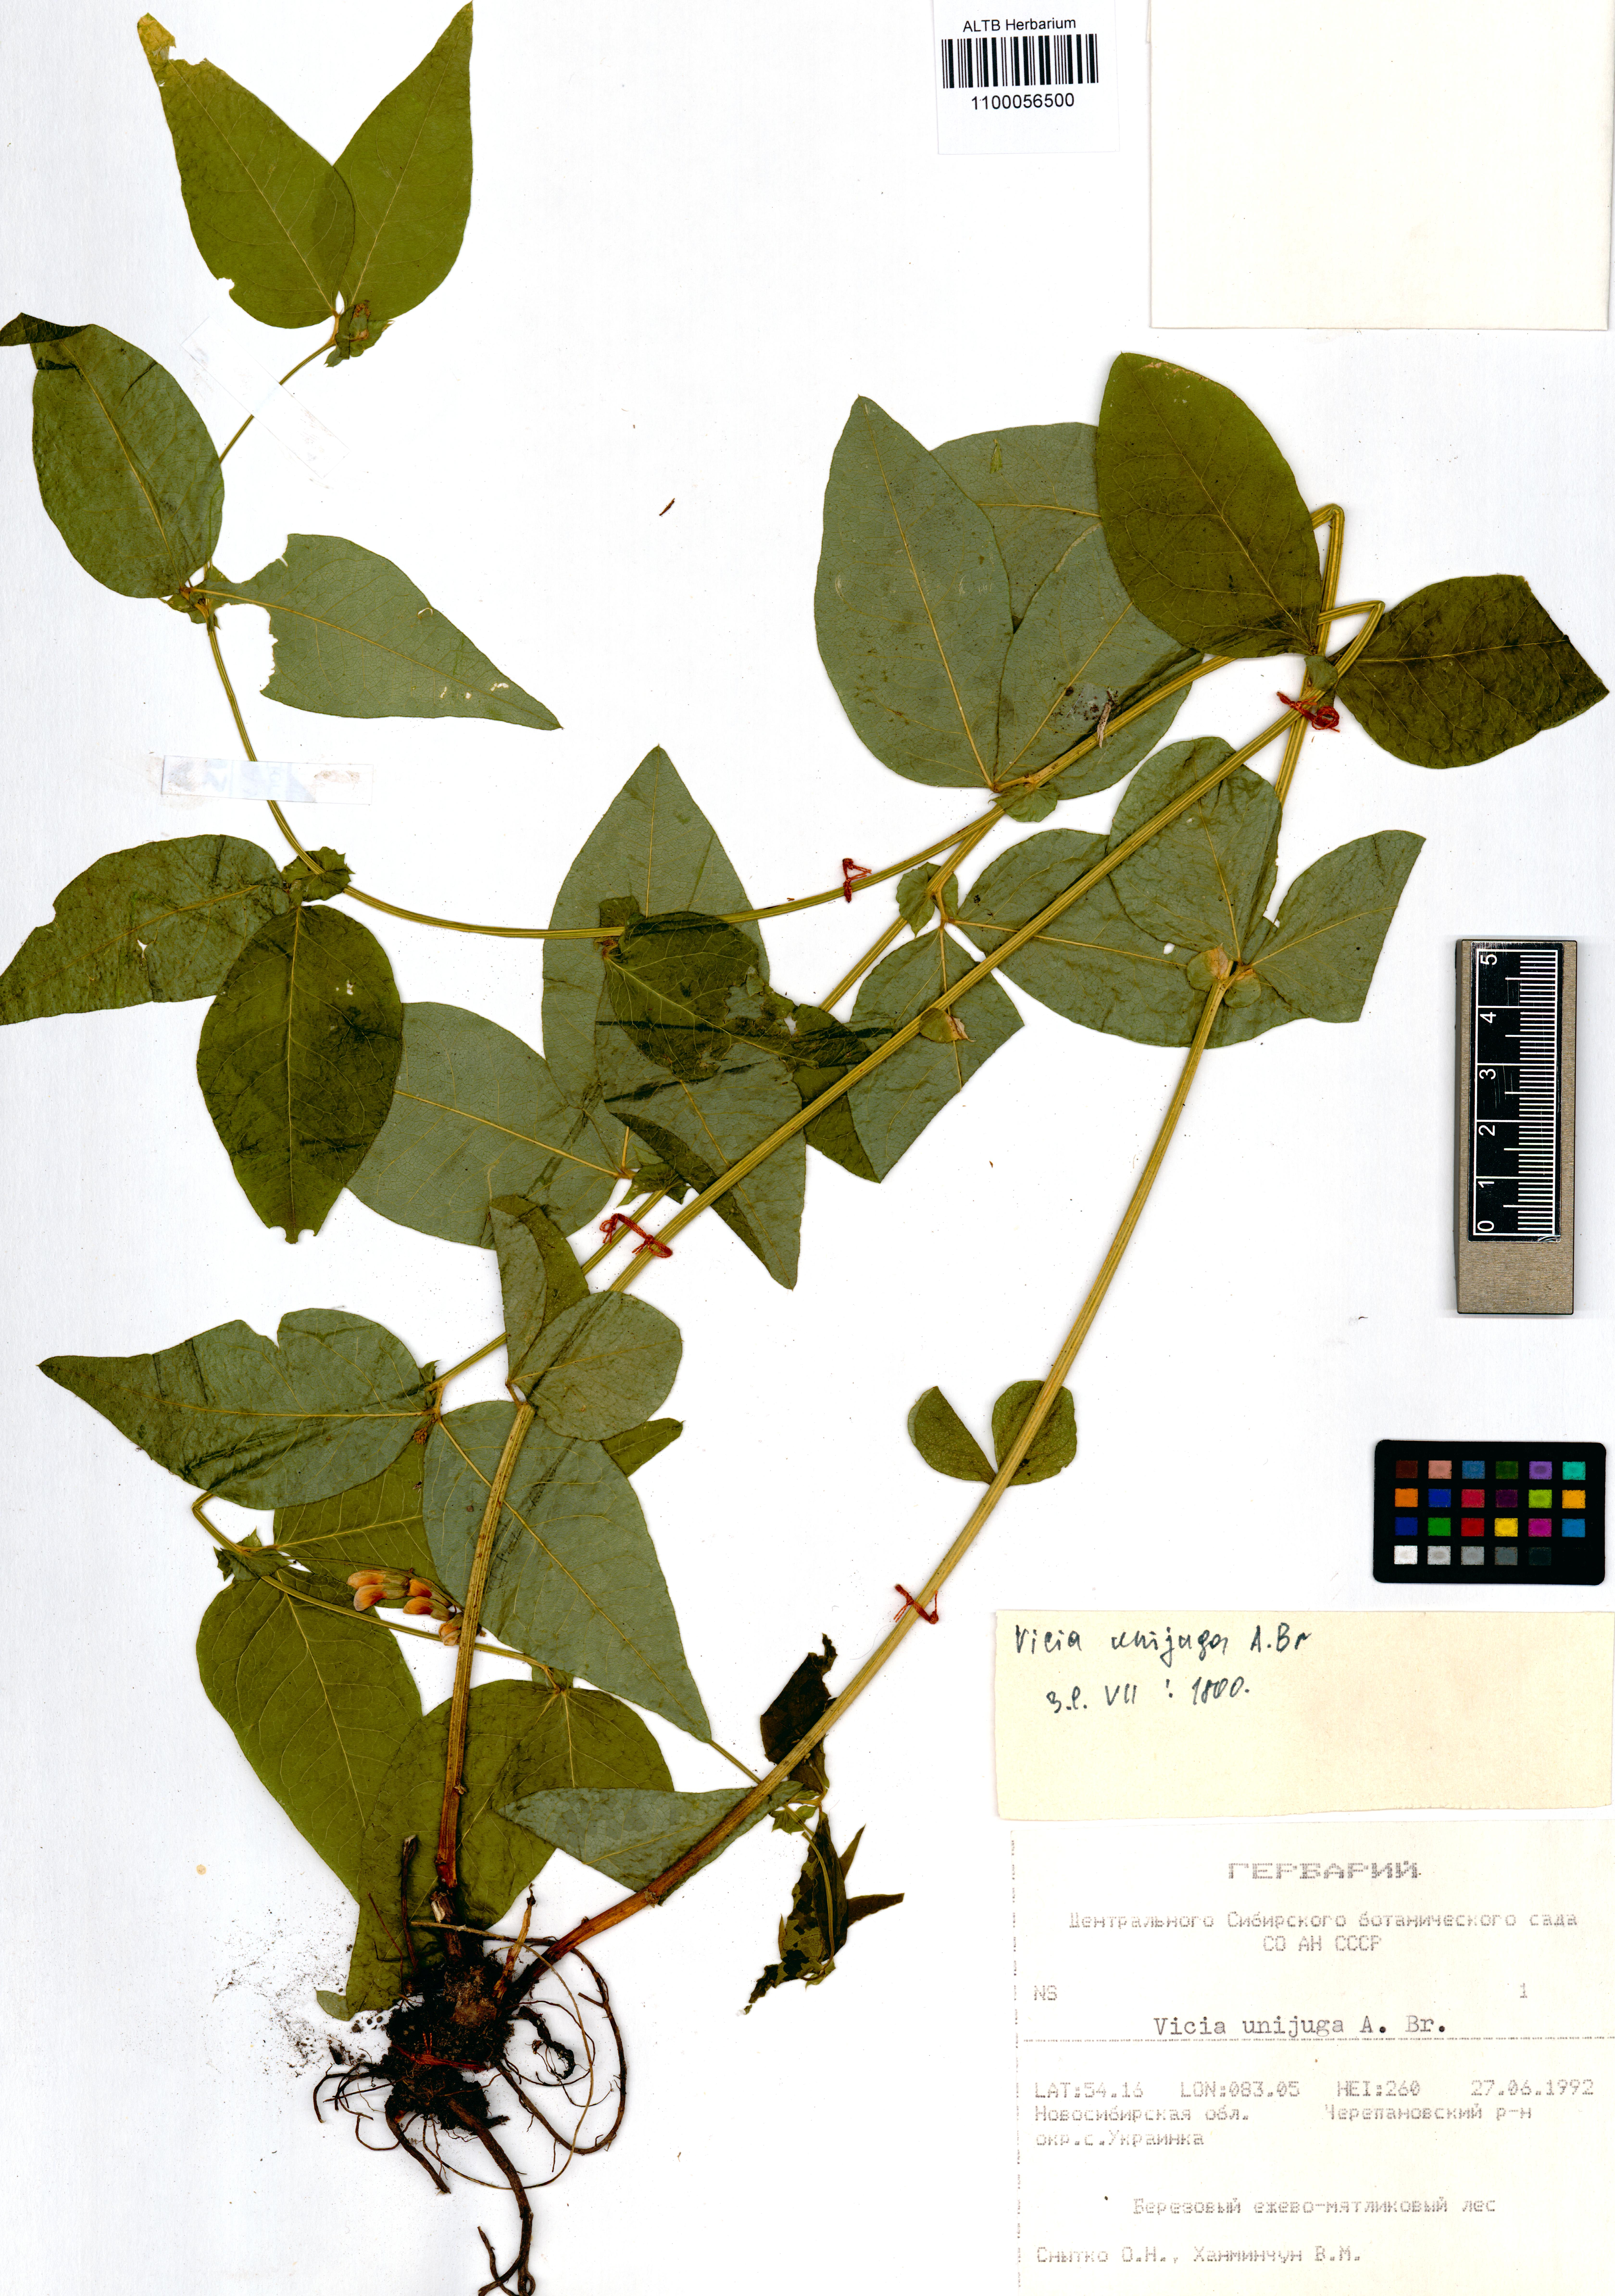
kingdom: Plantae
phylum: Tracheophyta
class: Magnoliopsida
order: Fabales
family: Fabaceae
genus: Vicia
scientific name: Vicia unijuga
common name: Two-leaf vetch
